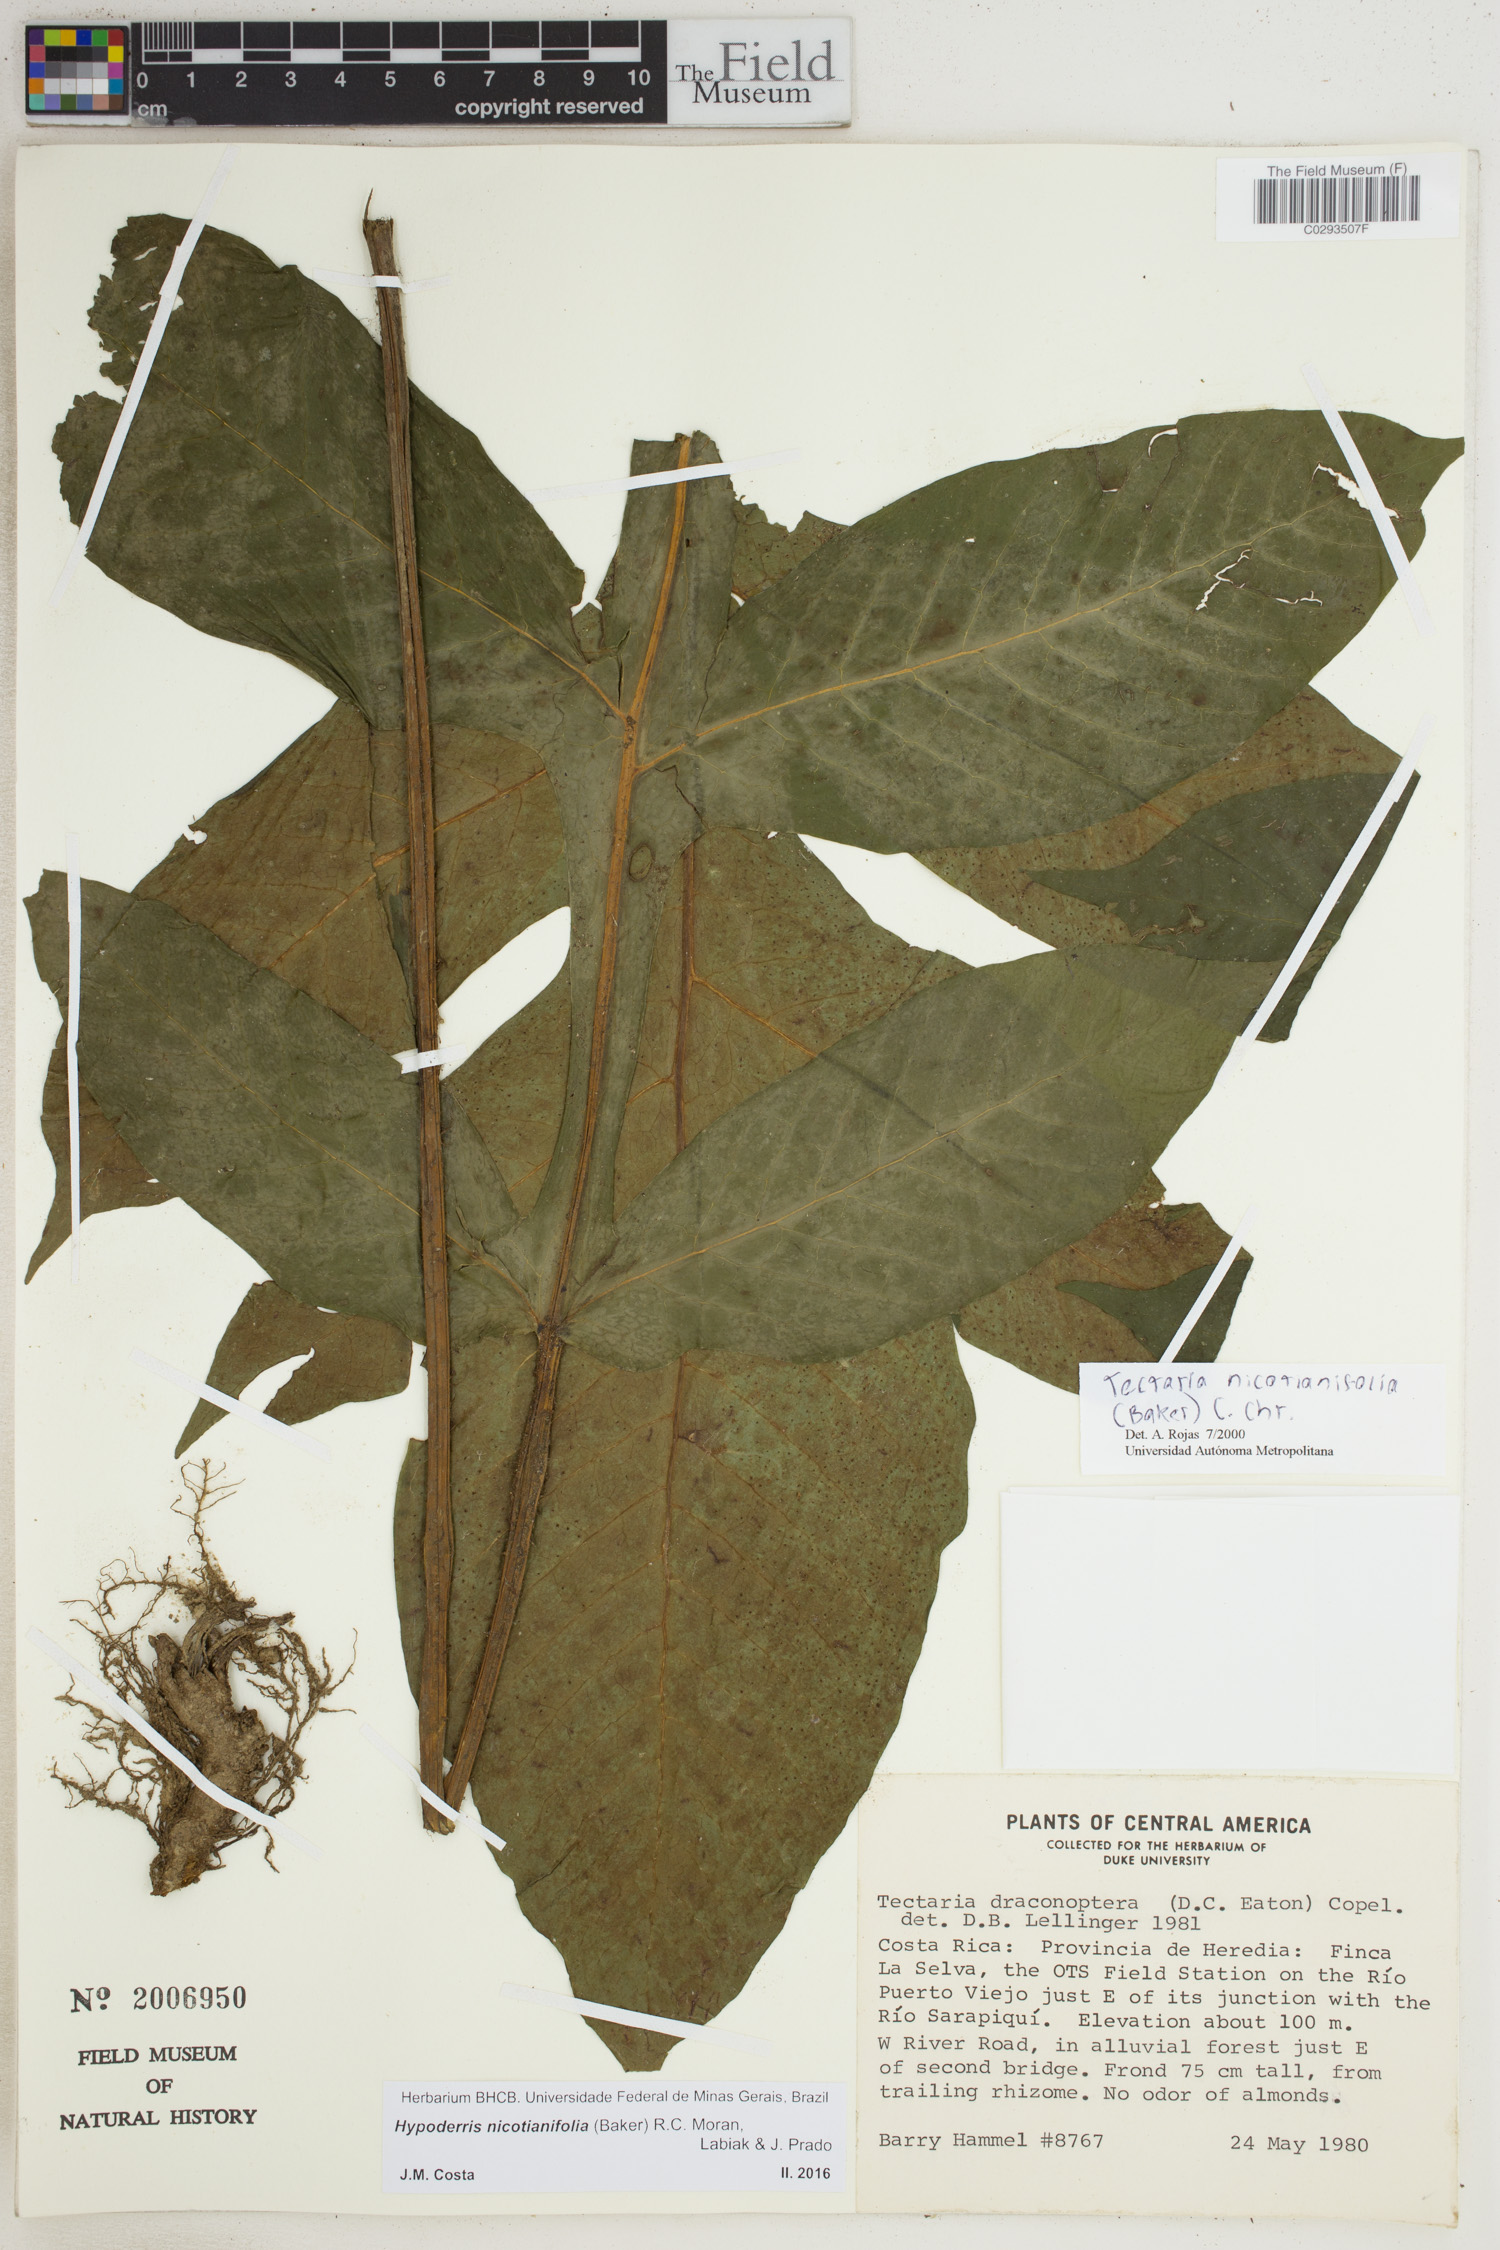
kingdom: Plantae
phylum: Tracheophyta
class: Polypodiopsida
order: Polypodiales
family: Tectariaceae
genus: Hypoderris
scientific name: Hypoderris nicotianifolia
